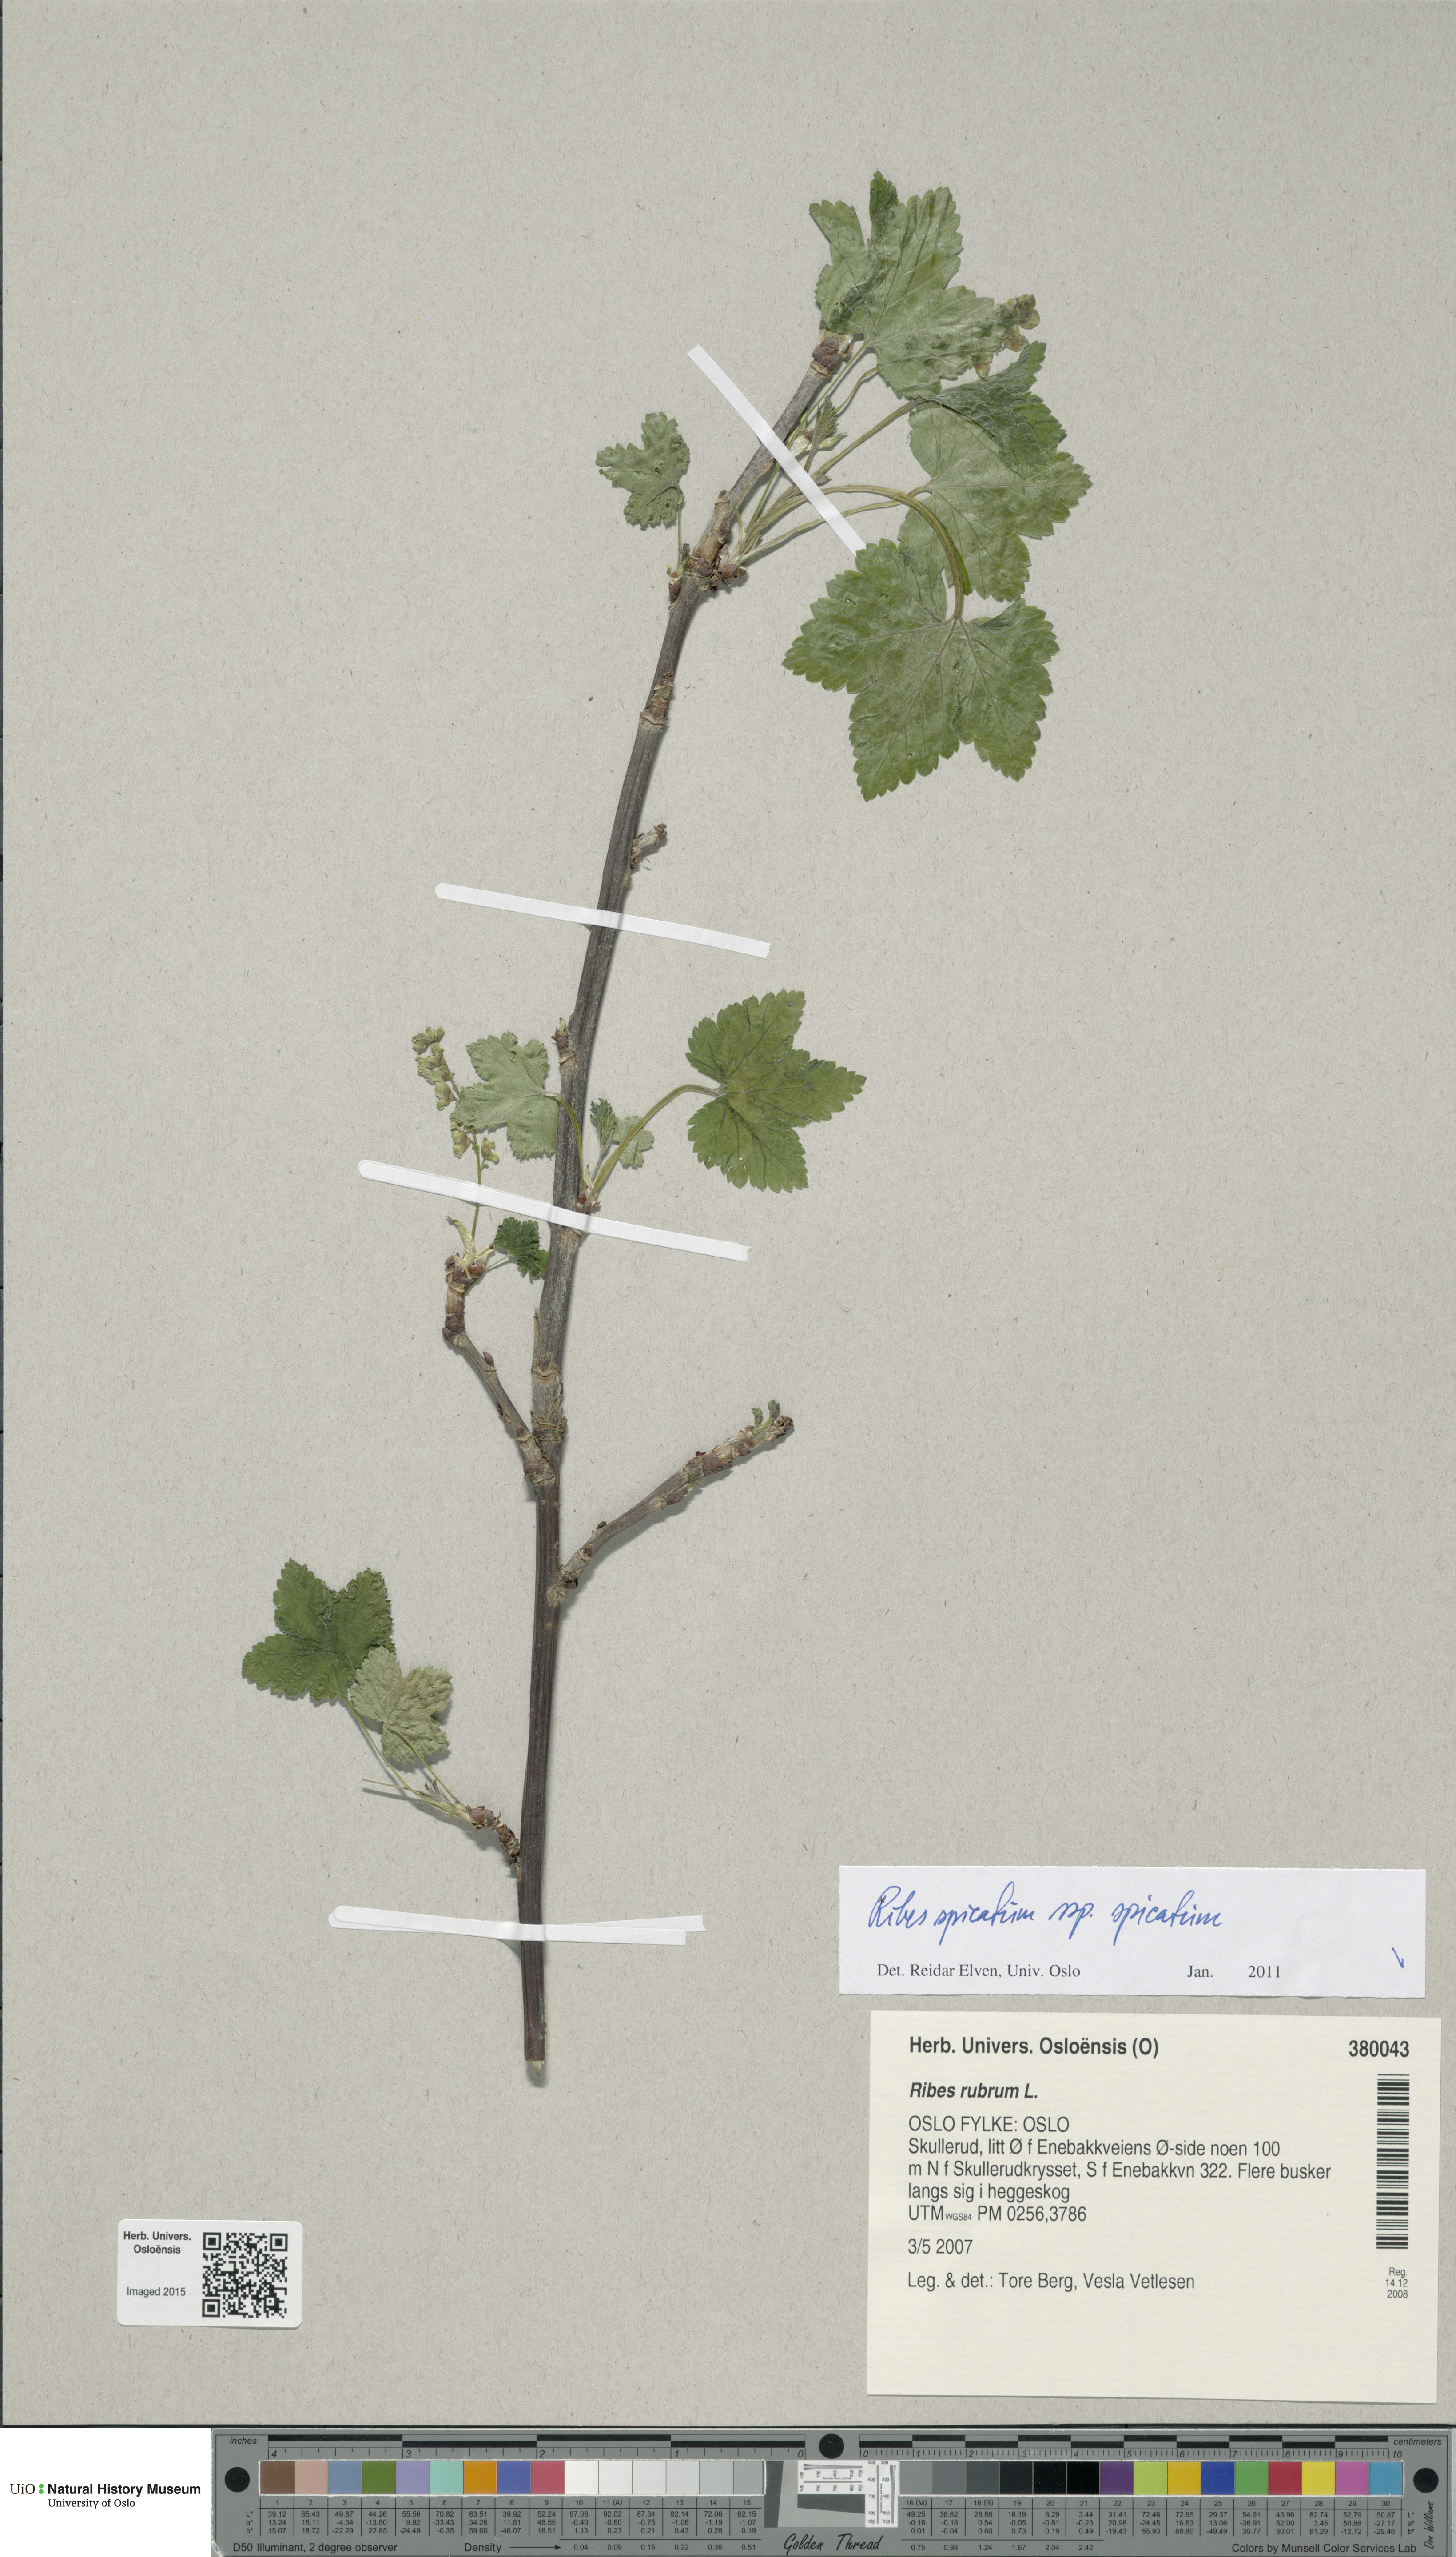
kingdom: Plantae
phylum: Tracheophyta
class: Magnoliopsida
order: Saxifragales
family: Grossulariaceae
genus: Ribes
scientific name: Ribes spicatum
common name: Downy currant
